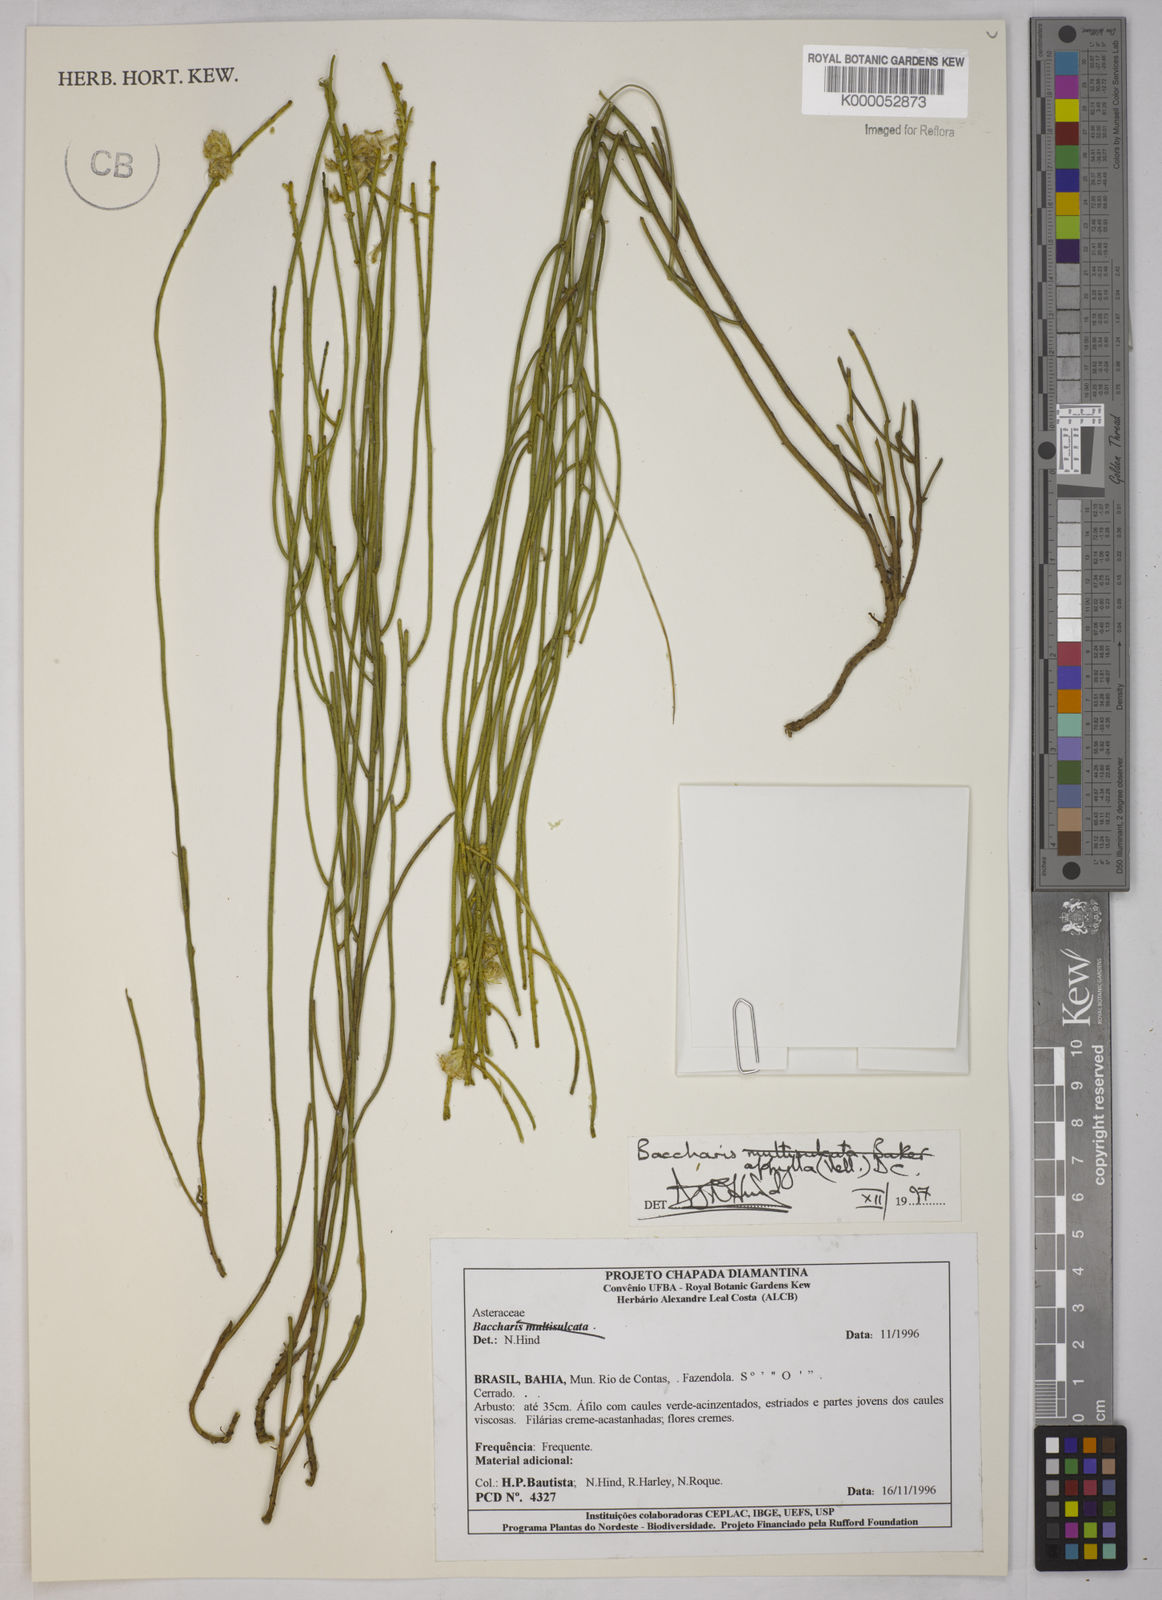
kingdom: Plantae
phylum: Tracheophyta
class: Magnoliopsida
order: Asterales
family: Asteraceae
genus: Baccharis
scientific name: Baccharis aphylla
